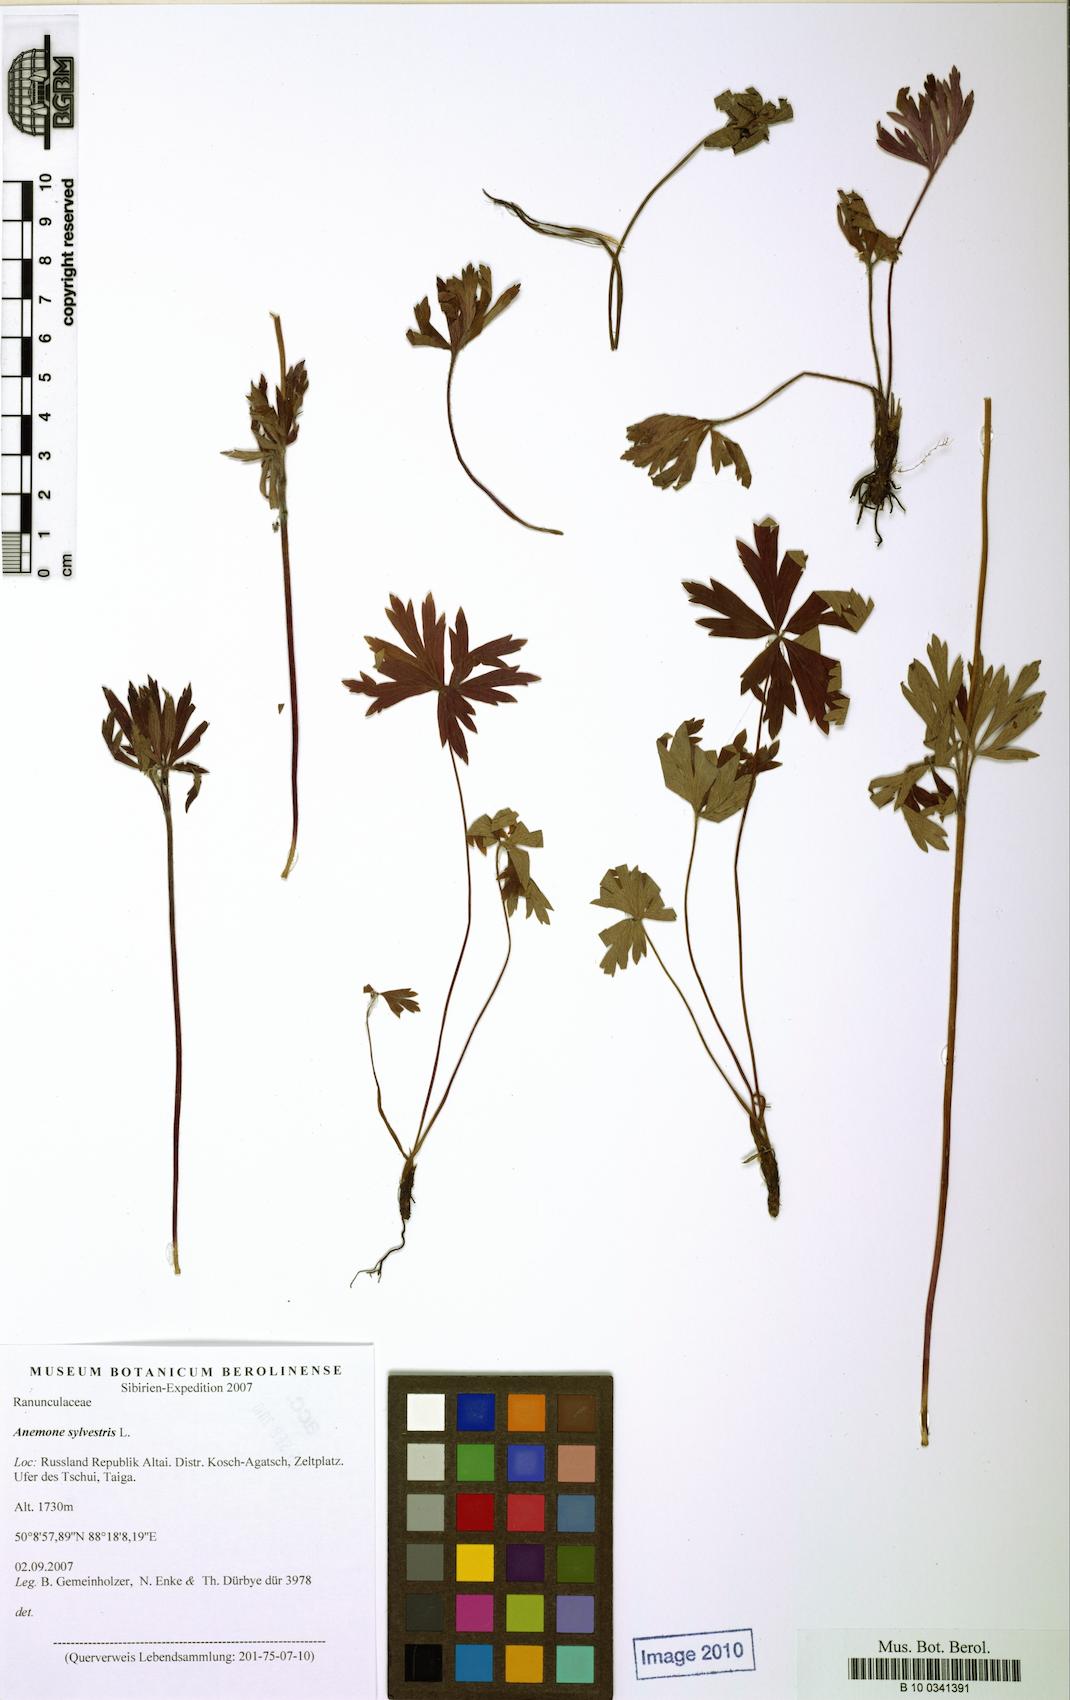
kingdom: Plantae
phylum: Tracheophyta
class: Magnoliopsida
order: Ranunculales
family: Ranunculaceae
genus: Anemone
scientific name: Anemone sylvestris
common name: Snowdrop anemone
